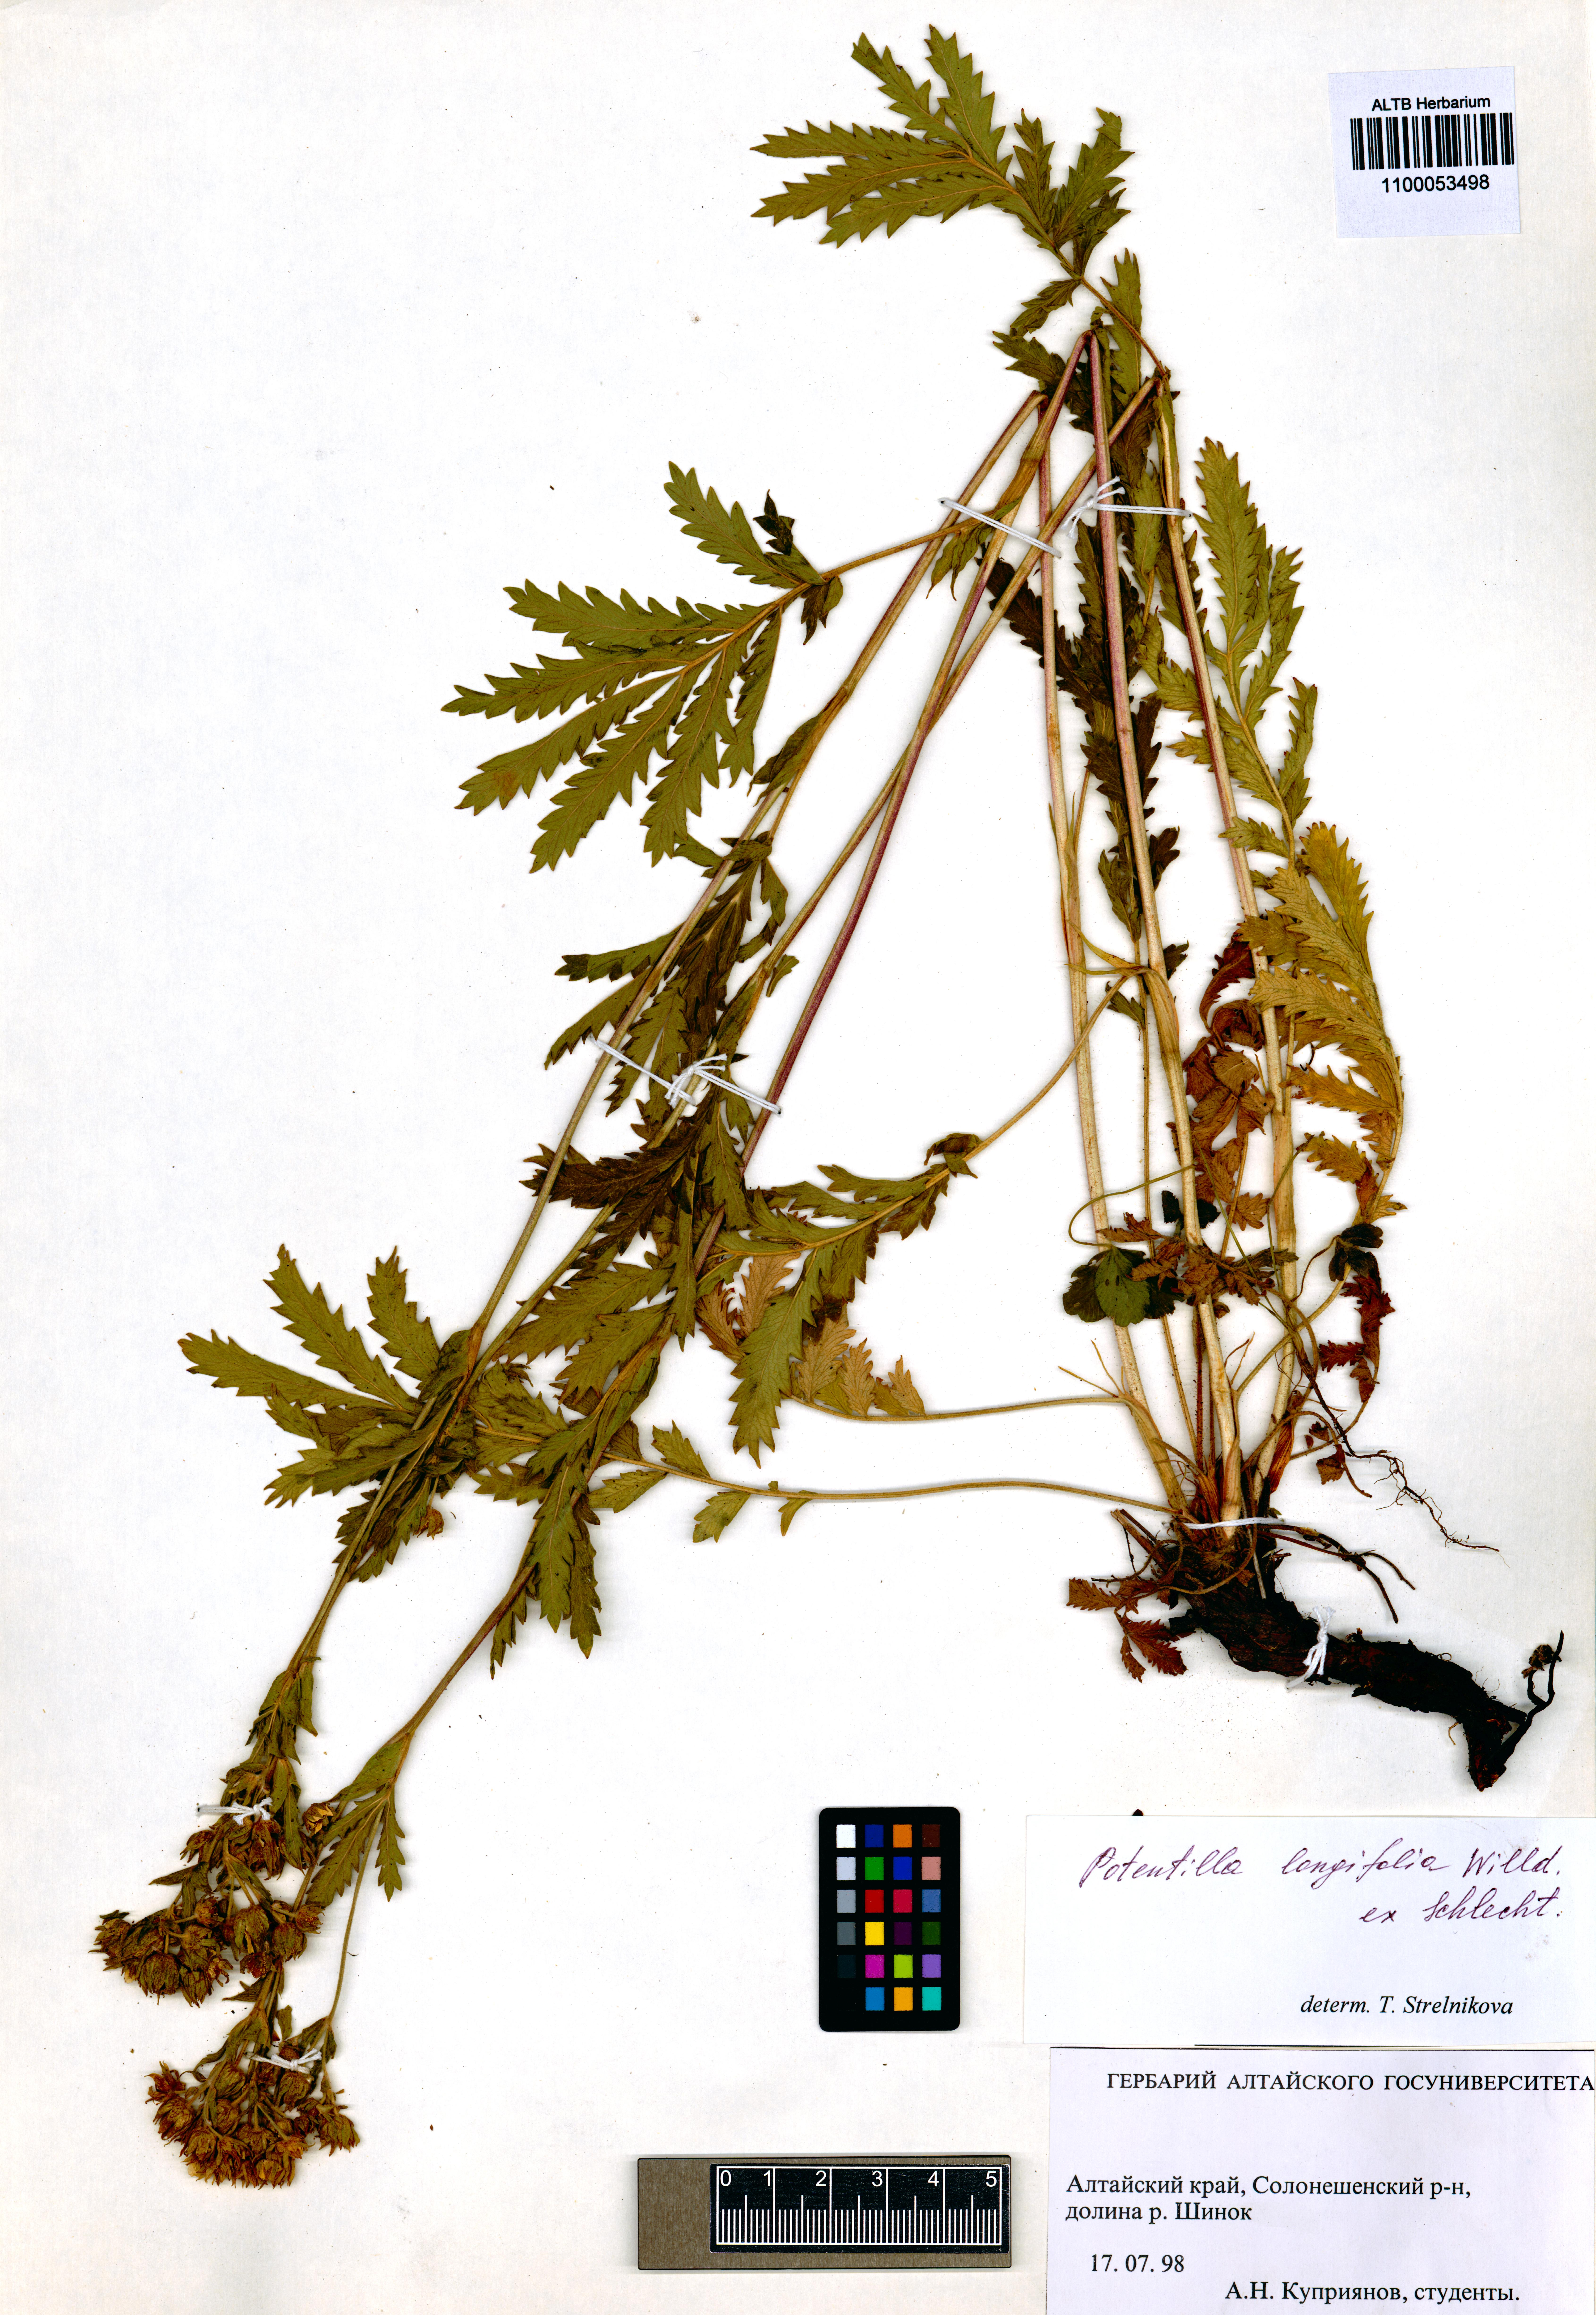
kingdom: Plantae
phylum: Tracheophyta
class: Magnoliopsida
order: Rosales
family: Rosaceae
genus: Potentilla
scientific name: Potentilla longifolia
